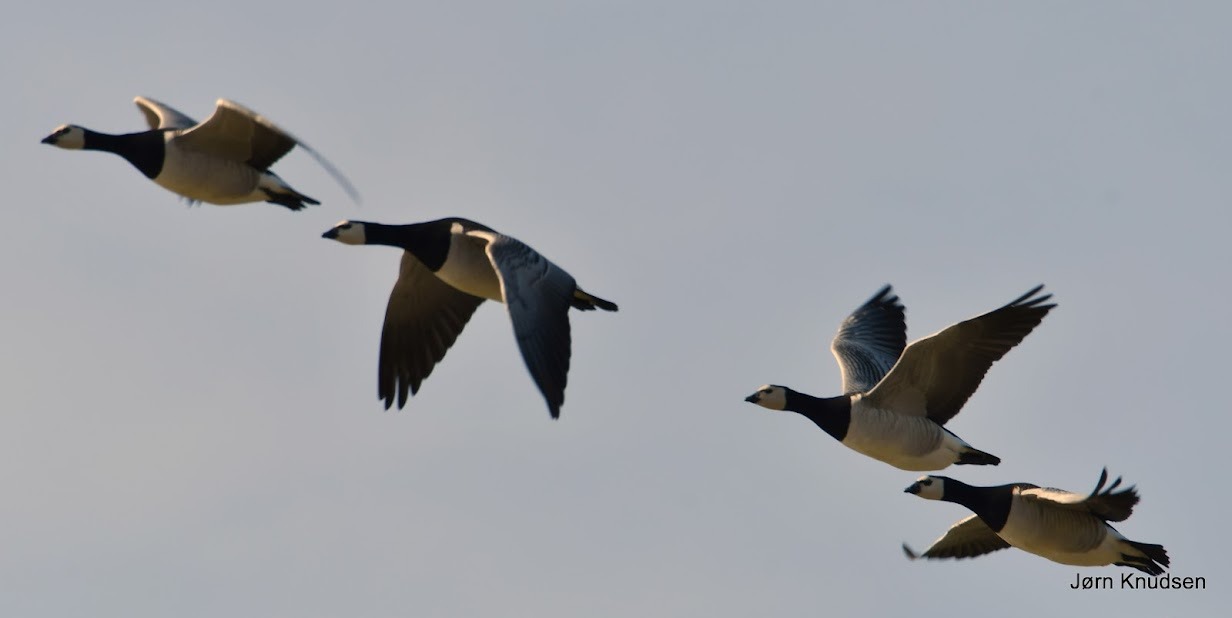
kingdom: Animalia
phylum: Chordata
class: Aves
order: Anseriformes
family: Anatidae
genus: Branta
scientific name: Branta leucopsis
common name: Bramgås
